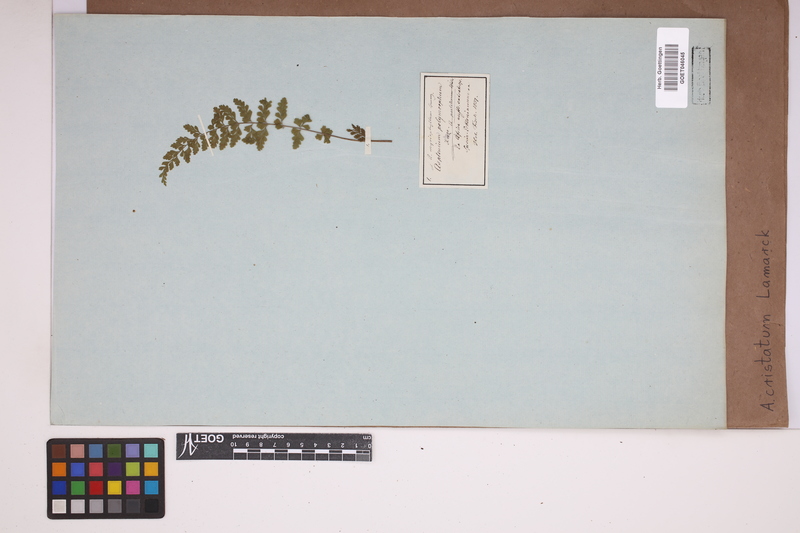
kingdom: Plantae
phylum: Tracheophyta
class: Polypodiopsida
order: Polypodiales
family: Aspleniaceae
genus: Asplenium
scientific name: Asplenium cristatum
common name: Parsley spleenwort
